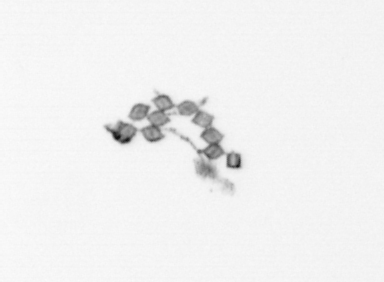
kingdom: Chromista
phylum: Ochrophyta
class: Bacillariophyceae
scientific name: Bacillariophyceae
